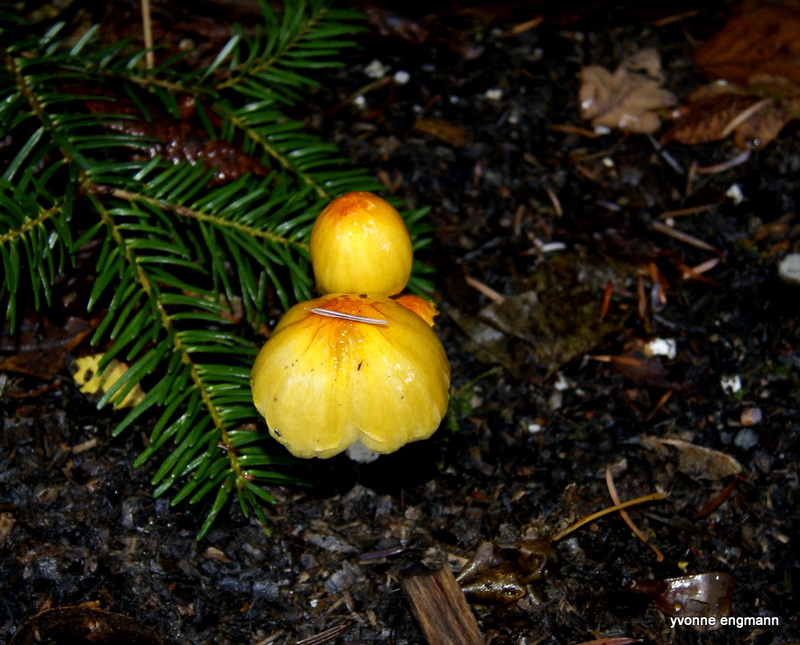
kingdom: Fungi
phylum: Basidiomycota
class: Agaricomycetes
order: Agaricales
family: Bolbitiaceae
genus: Bolbitius
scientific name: Bolbitius titubans
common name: almindelig gulhat
